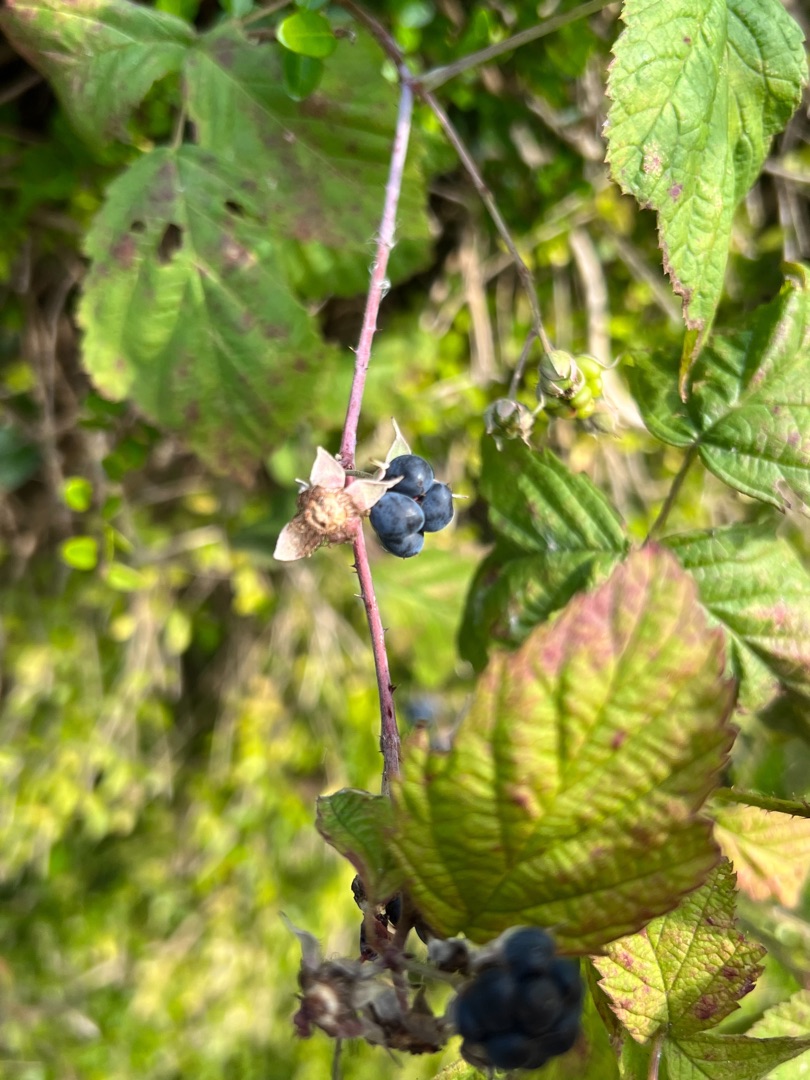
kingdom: Plantae
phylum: Tracheophyta
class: Magnoliopsida
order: Rosales
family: Rosaceae
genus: Rubus
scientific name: Rubus caesius
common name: Korbær
